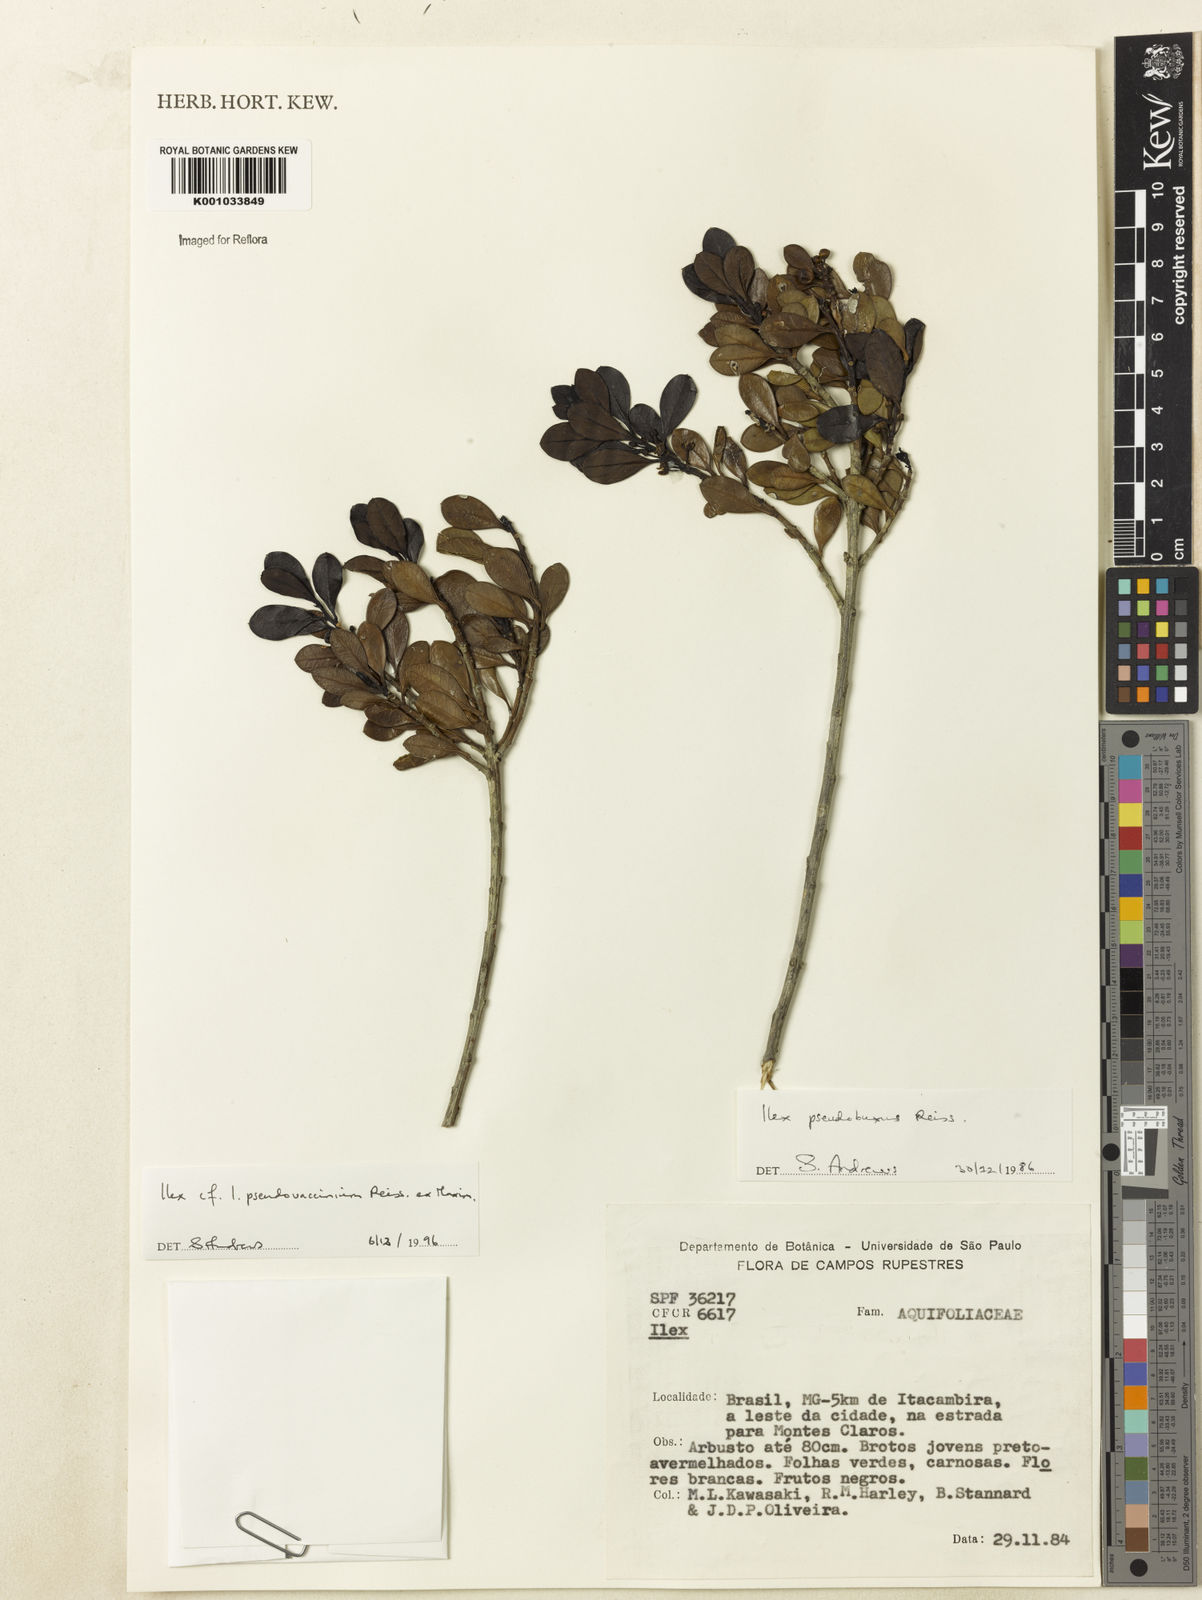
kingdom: Plantae
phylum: Tracheophyta
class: Magnoliopsida
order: Aquifoliales
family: Aquifoliaceae
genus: Ilex
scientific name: Ilex pseudovaccinium
